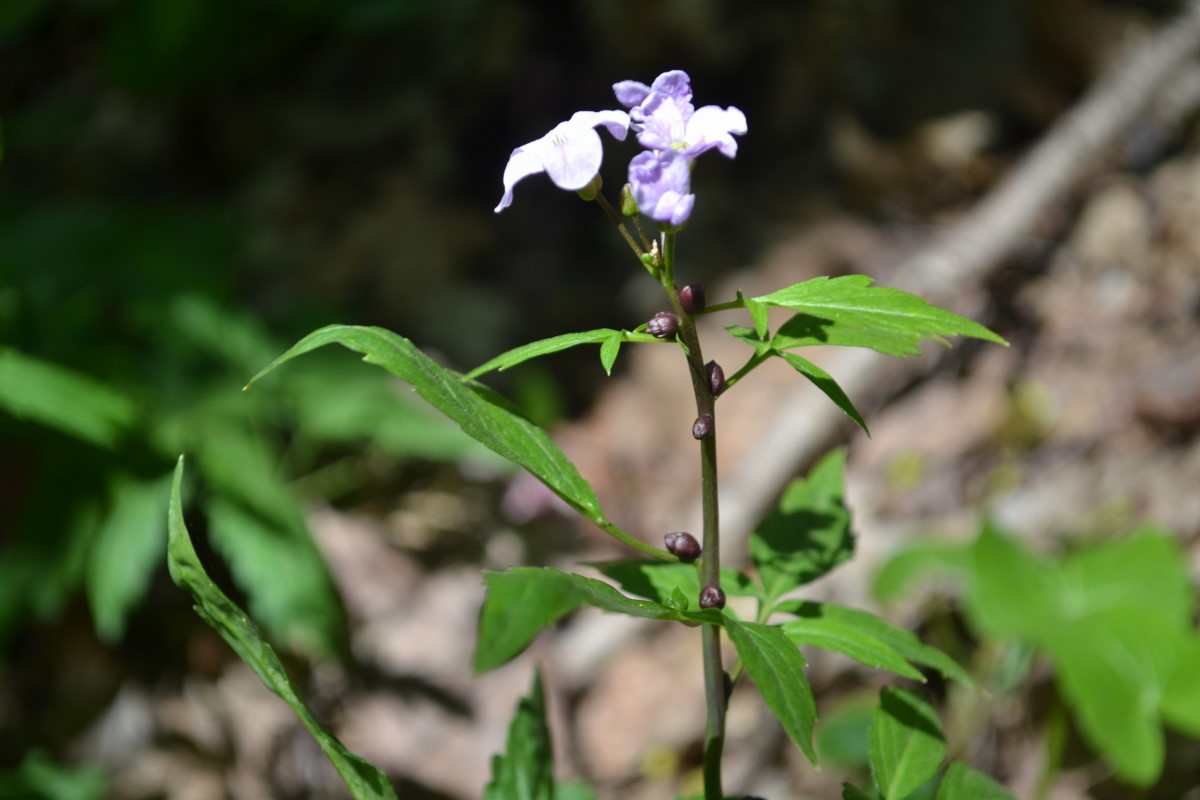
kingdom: Plantae
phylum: Tracheophyta
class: Magnoliopsida
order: Brassicales
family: Brassicaceae
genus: Cardamine
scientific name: Cardamine bulbifera
